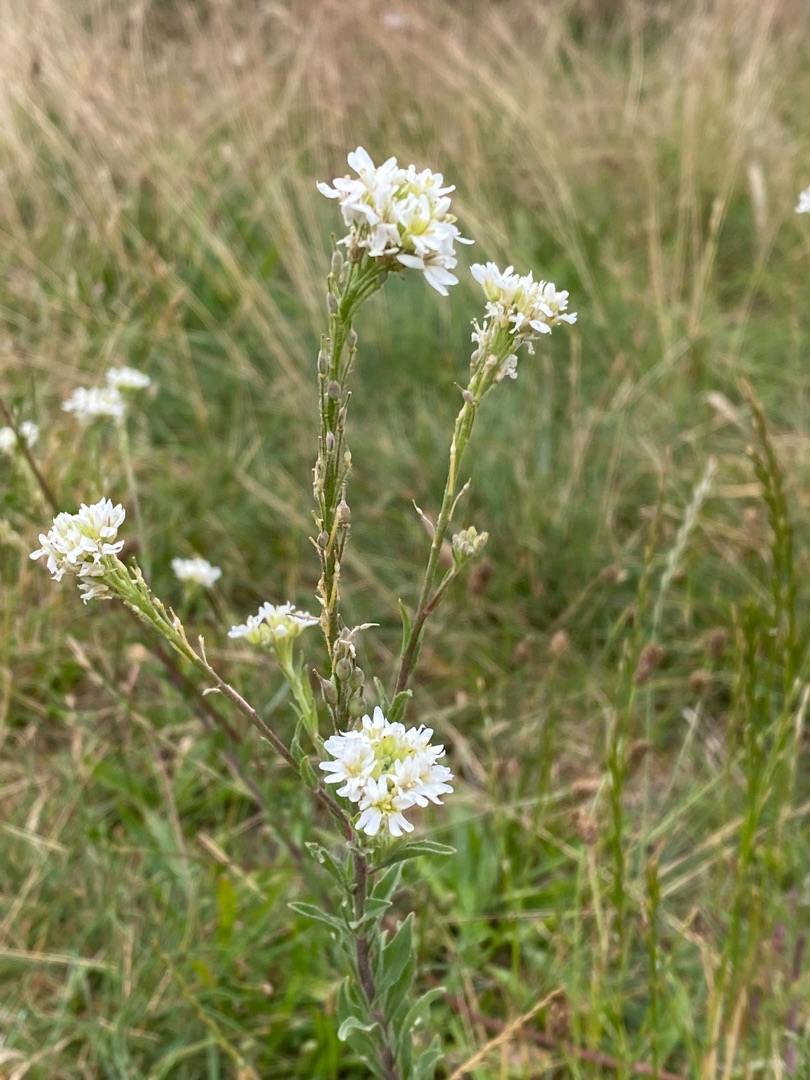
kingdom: Plantae
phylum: Tracheophyta
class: Magnoliopsida
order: Brassicales
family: Brassicaceae
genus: Berteroa
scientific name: Berteroa incana
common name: Kløvplade
